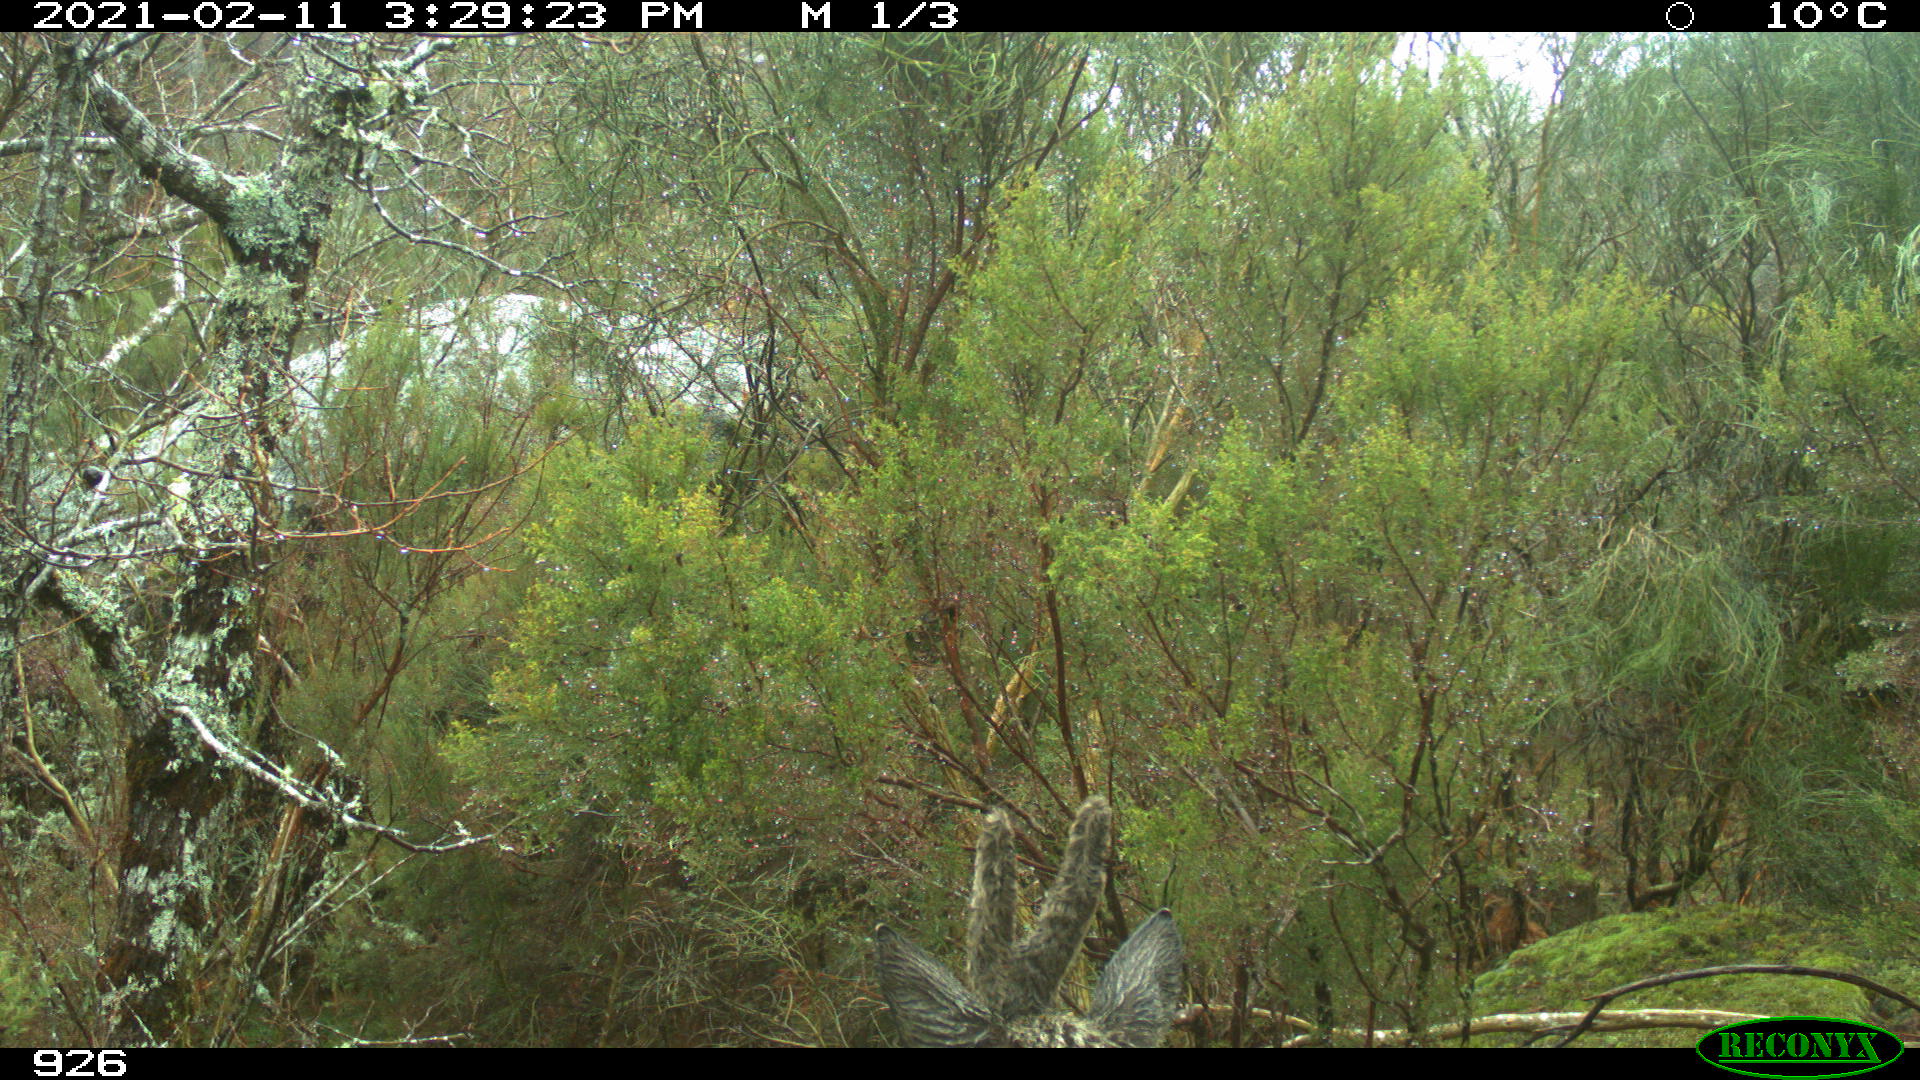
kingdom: Animalia
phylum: Chordata
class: Mammalia
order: Artiodactyla
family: Cervidae
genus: Capreolus
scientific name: Capreolus capreolus
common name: Western roe deer
